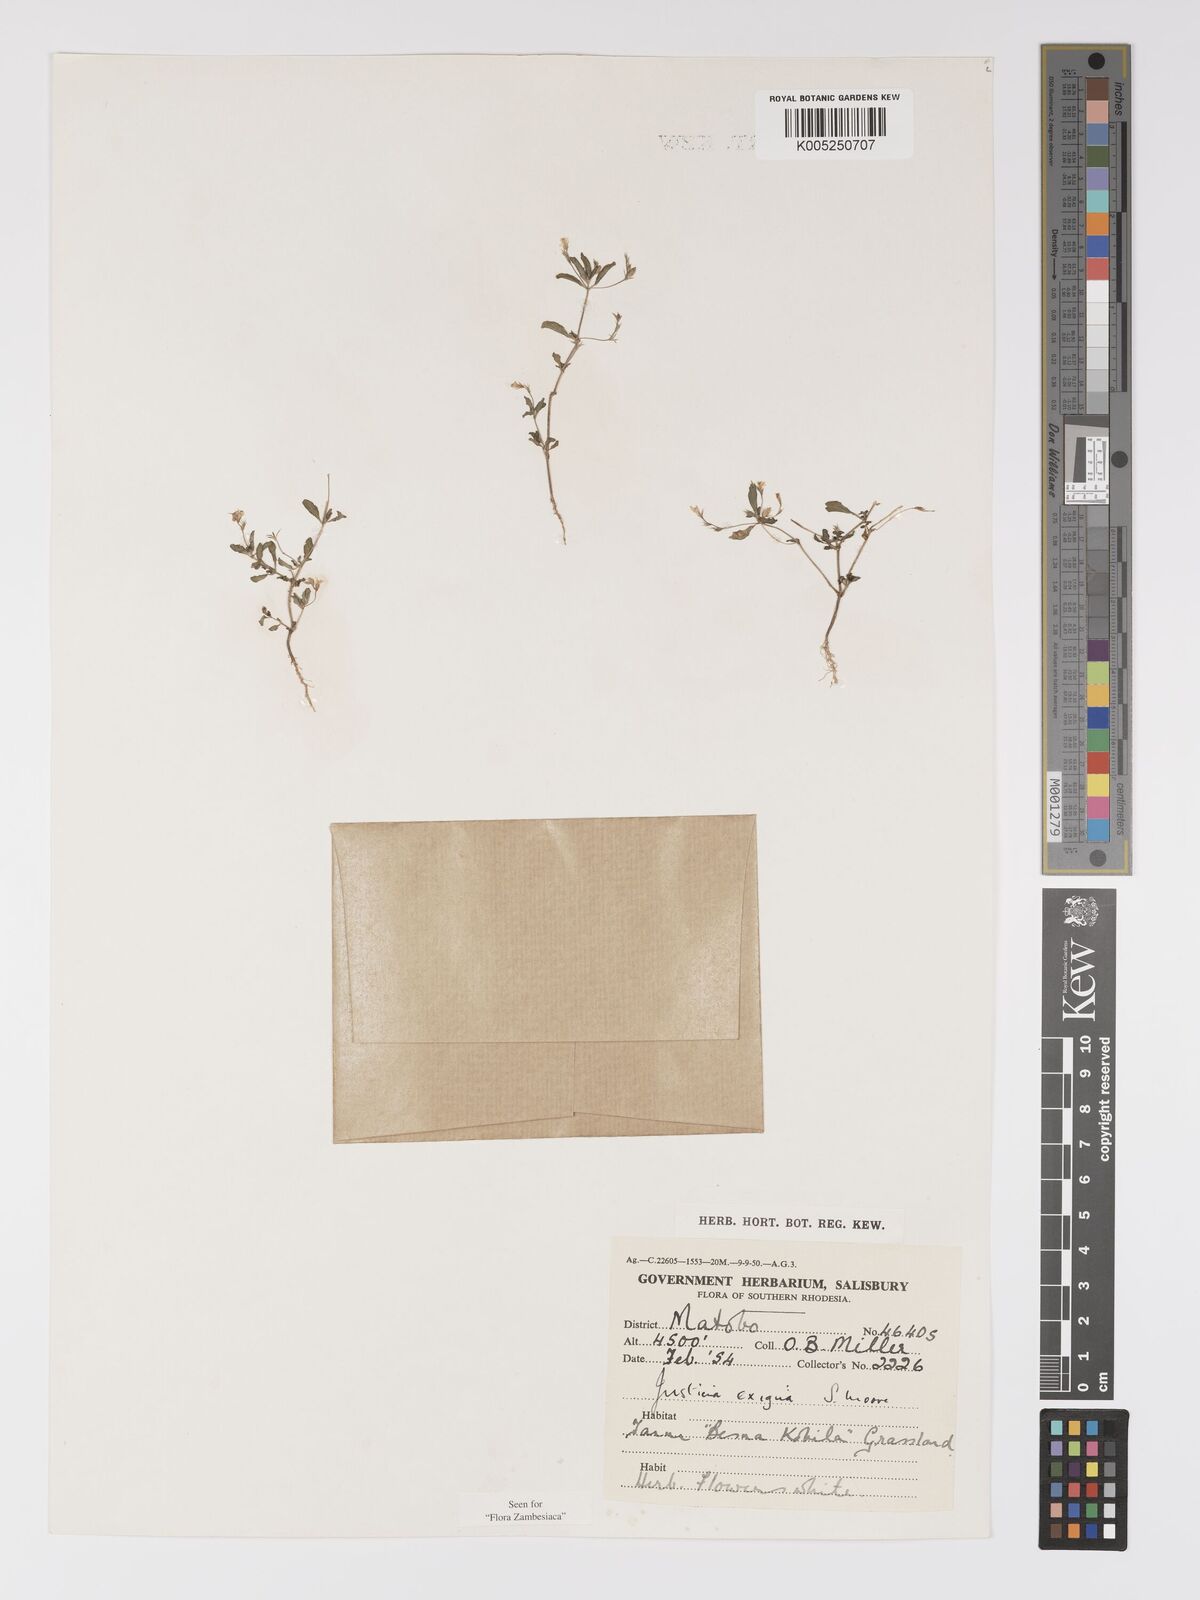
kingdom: Plantae
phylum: Tracheophyta
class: Magnoliopsida
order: Lamiales
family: Acanthaceae
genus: Justicia
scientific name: Justicia exigua
